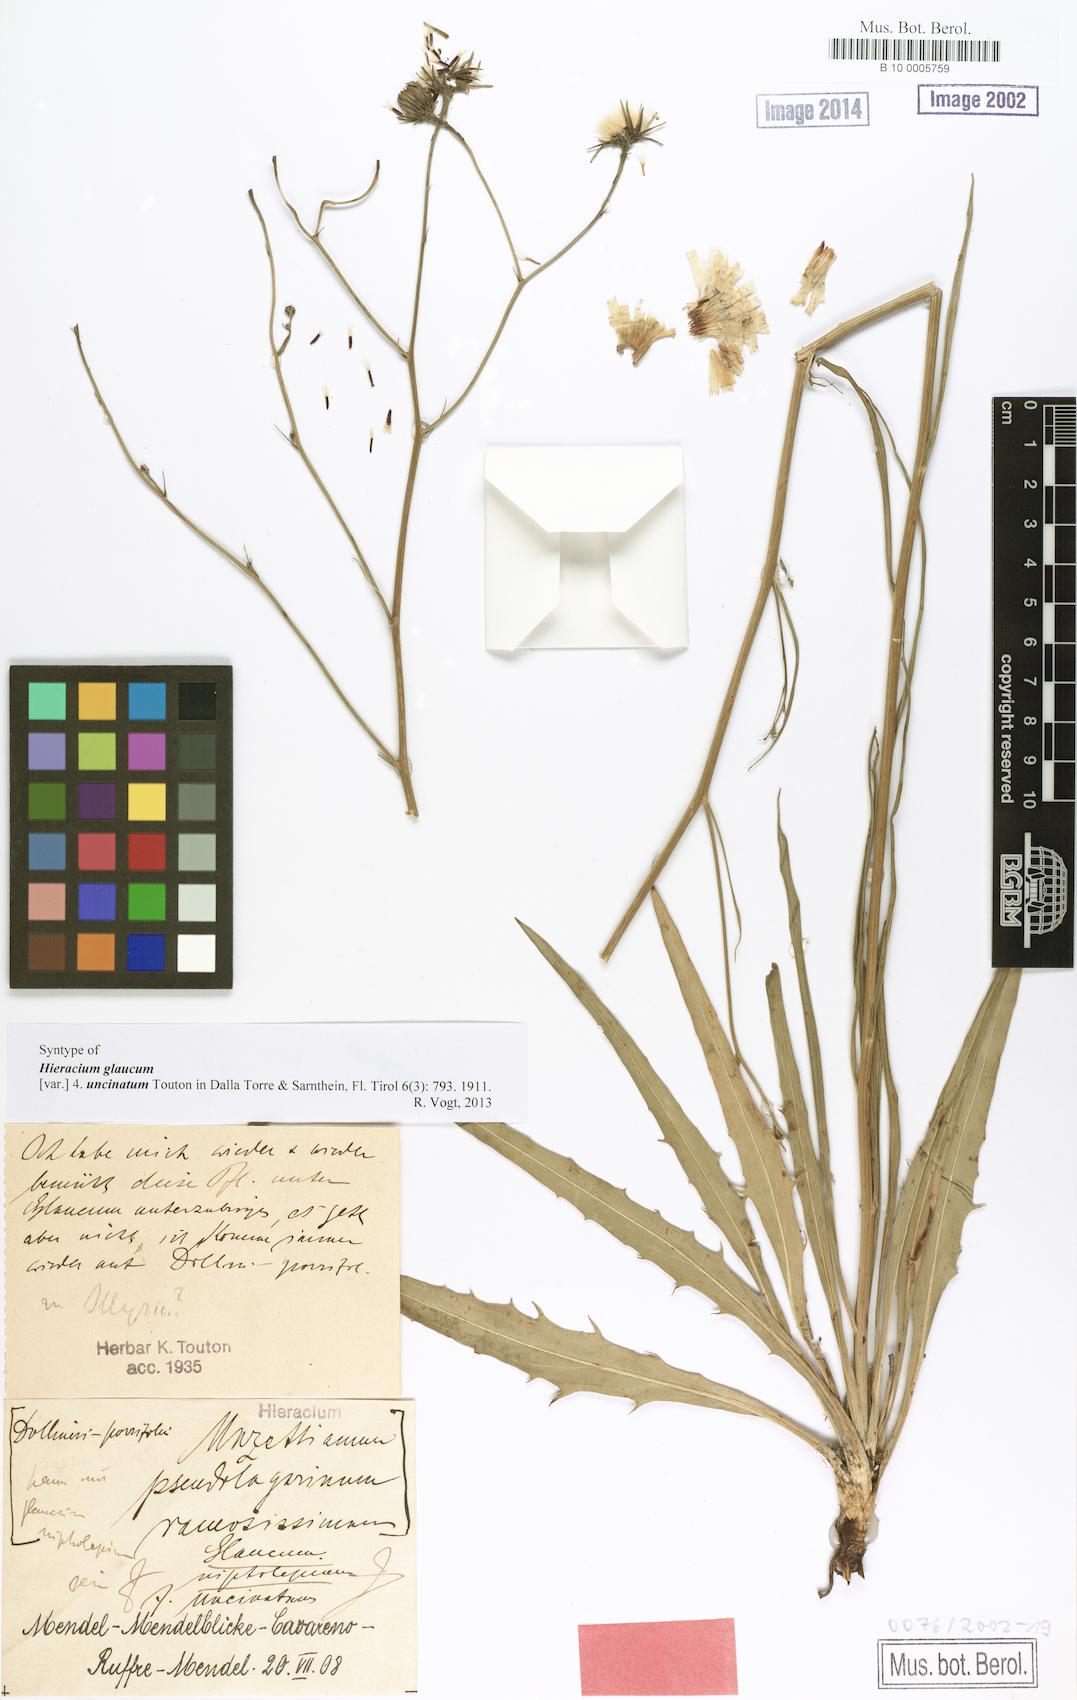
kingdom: Plantae
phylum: Tracheophyta
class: Magnoliopsida
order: Asterales
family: Asteraceae
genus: Hieracium
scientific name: Hieracium glaucum
